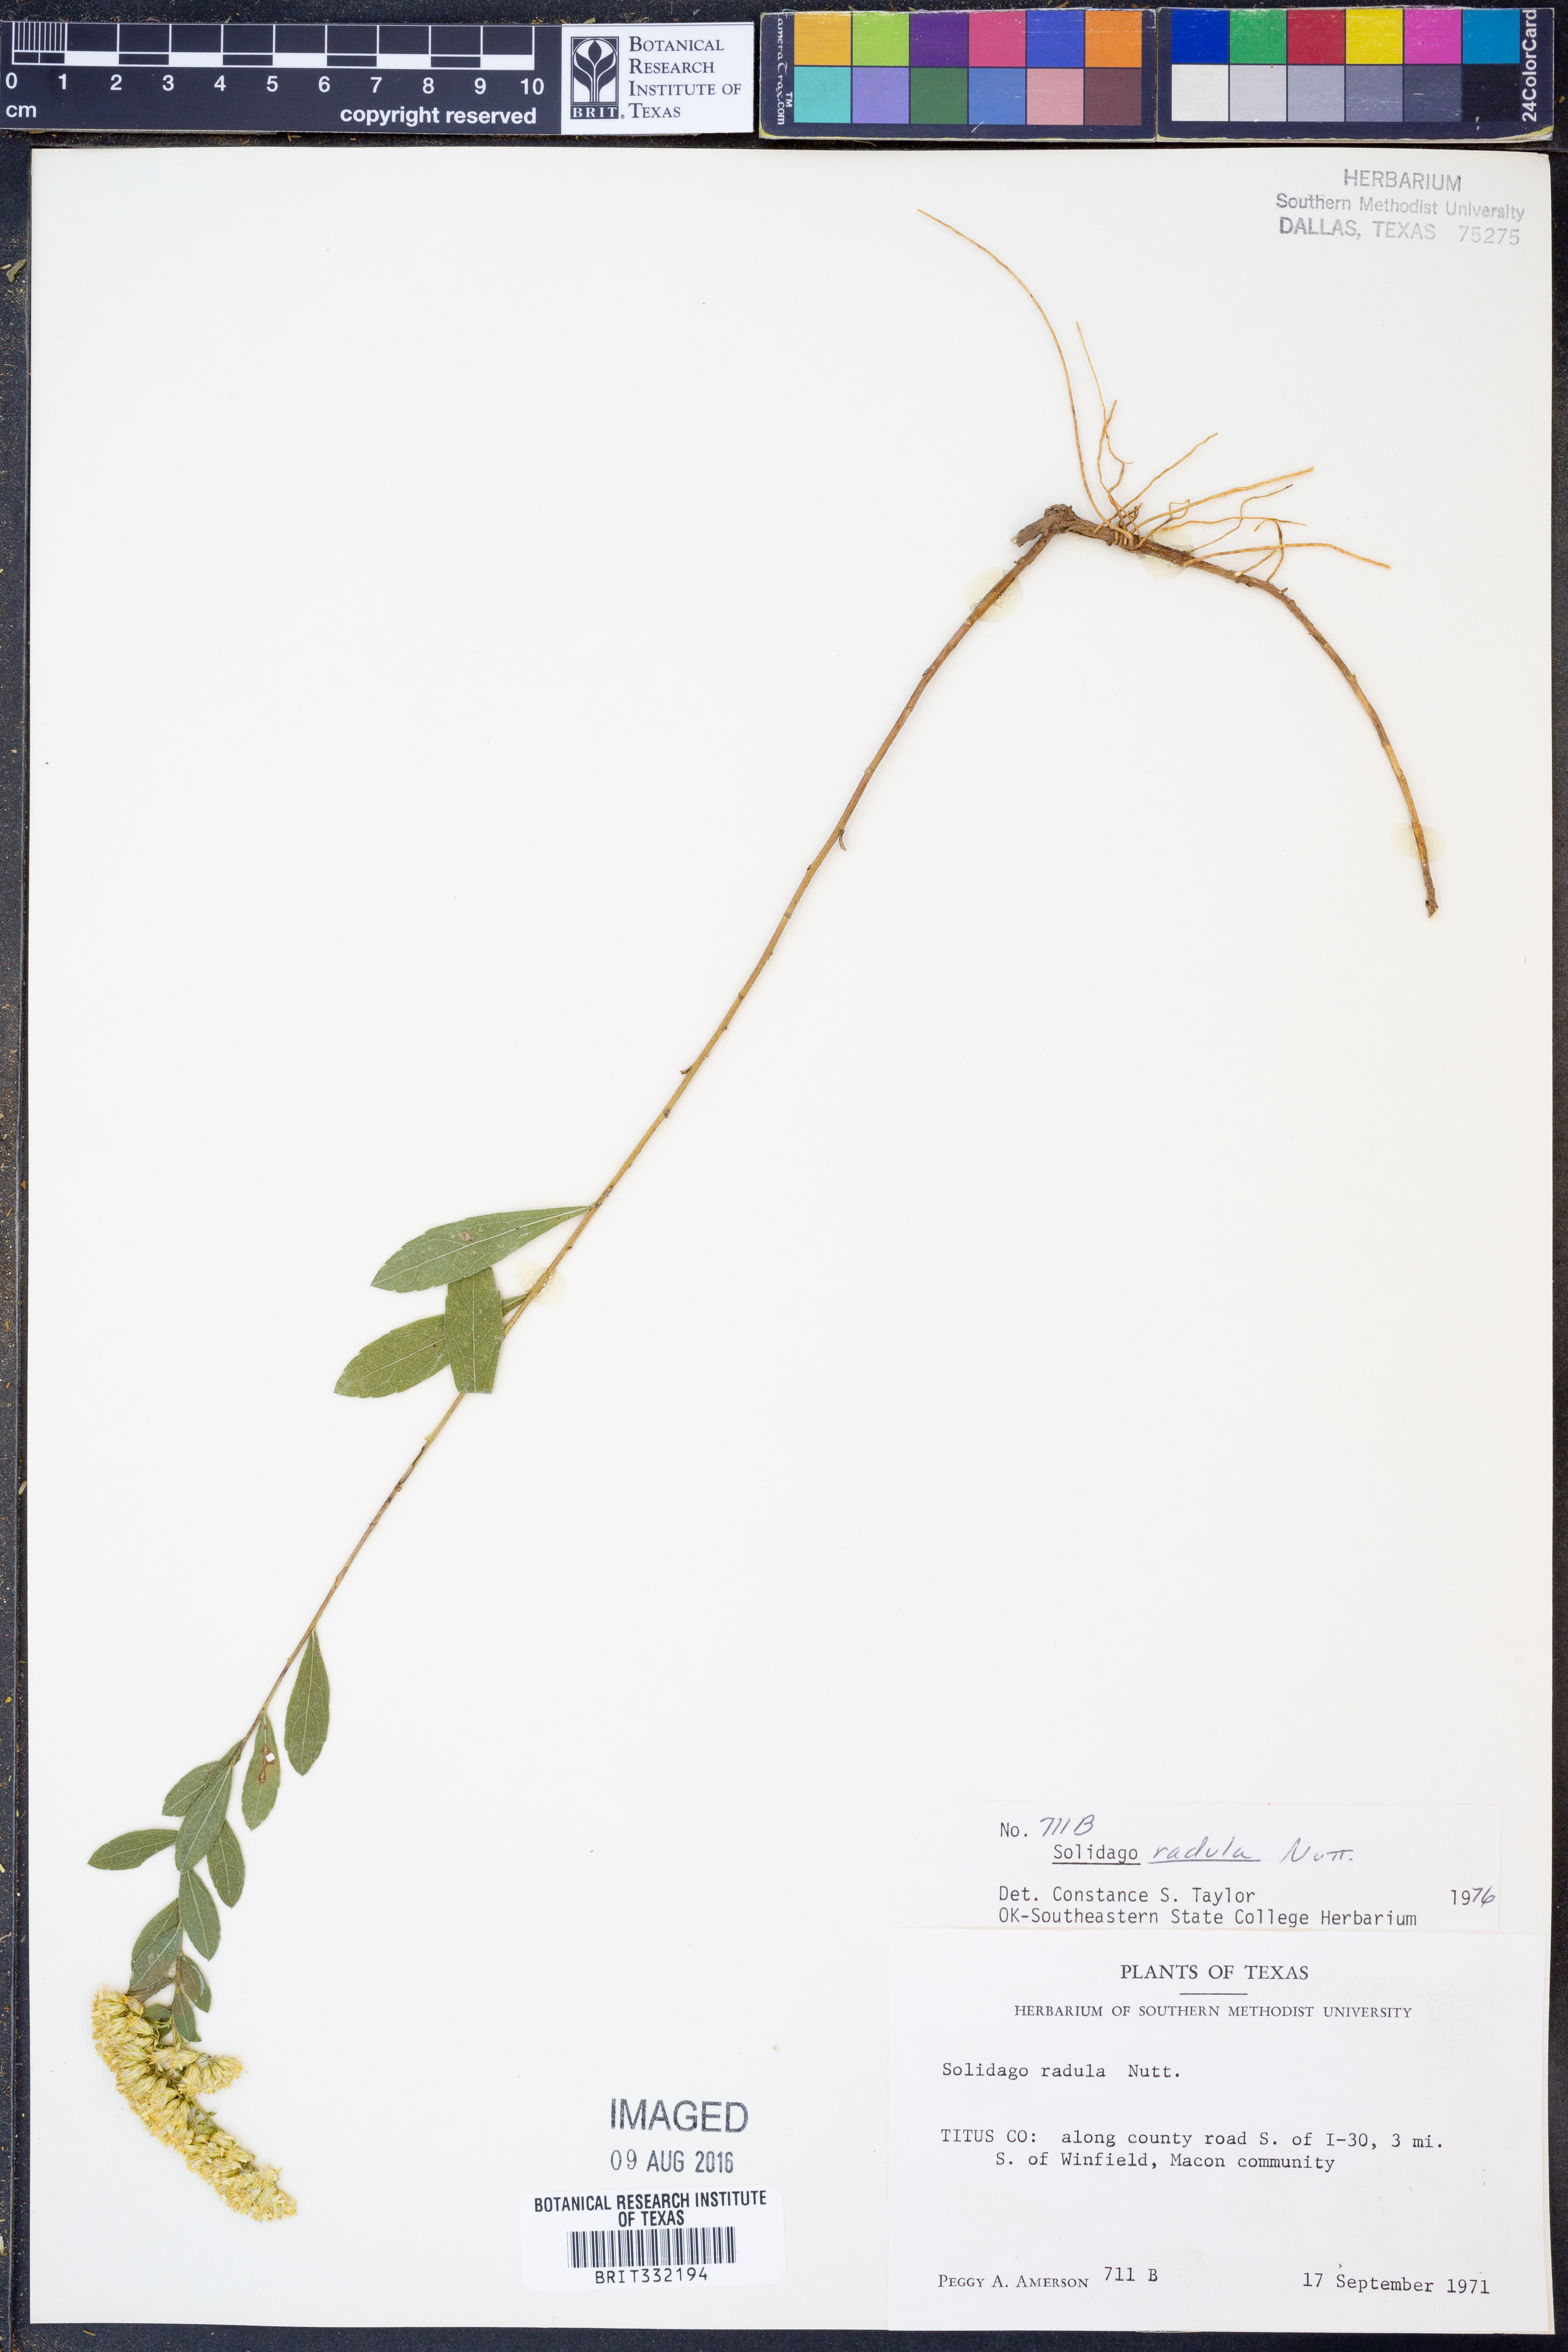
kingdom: Plantae
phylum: Tracheophyta
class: Magnoliopsida
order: Asterales
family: Asteraceae
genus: Solidago
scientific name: Solidago radula
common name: Western rough goldenrod
